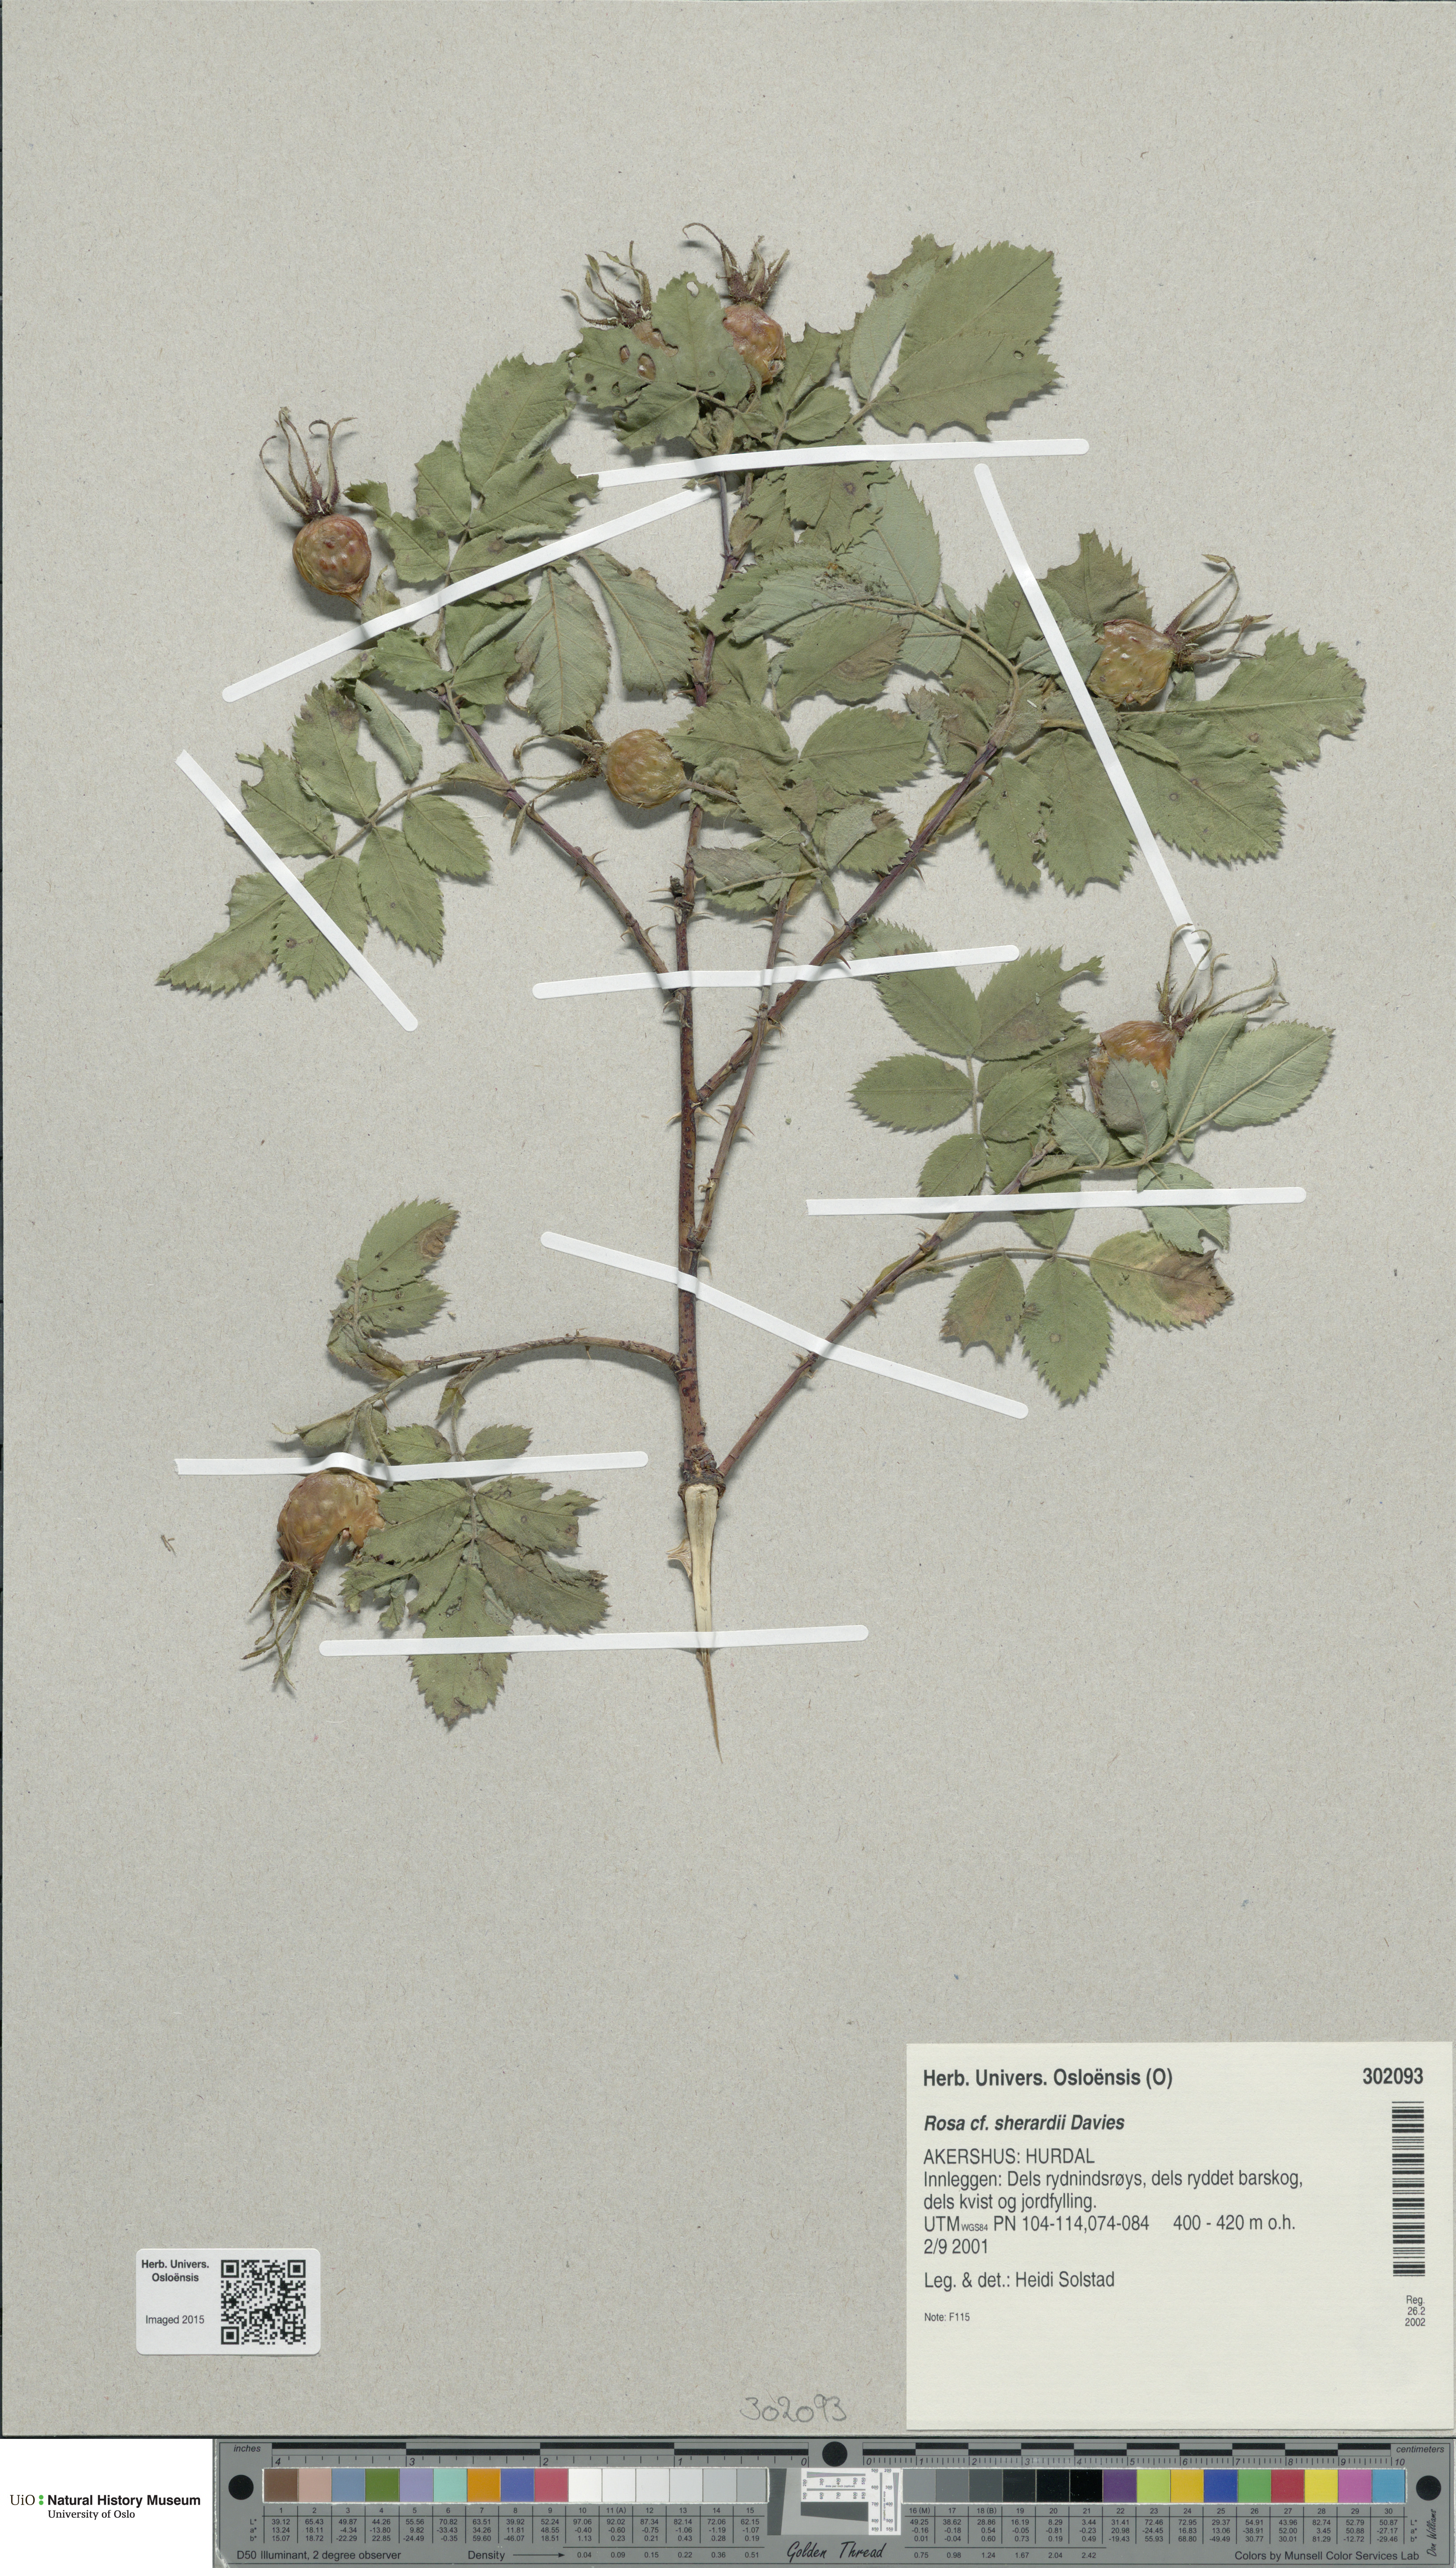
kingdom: Plantae
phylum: Tracheophyta
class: Magnoliopsida
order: Rosales
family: Rosaceae
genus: Rosa
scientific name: Rosa sherardii
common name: Sherard's downy rose
